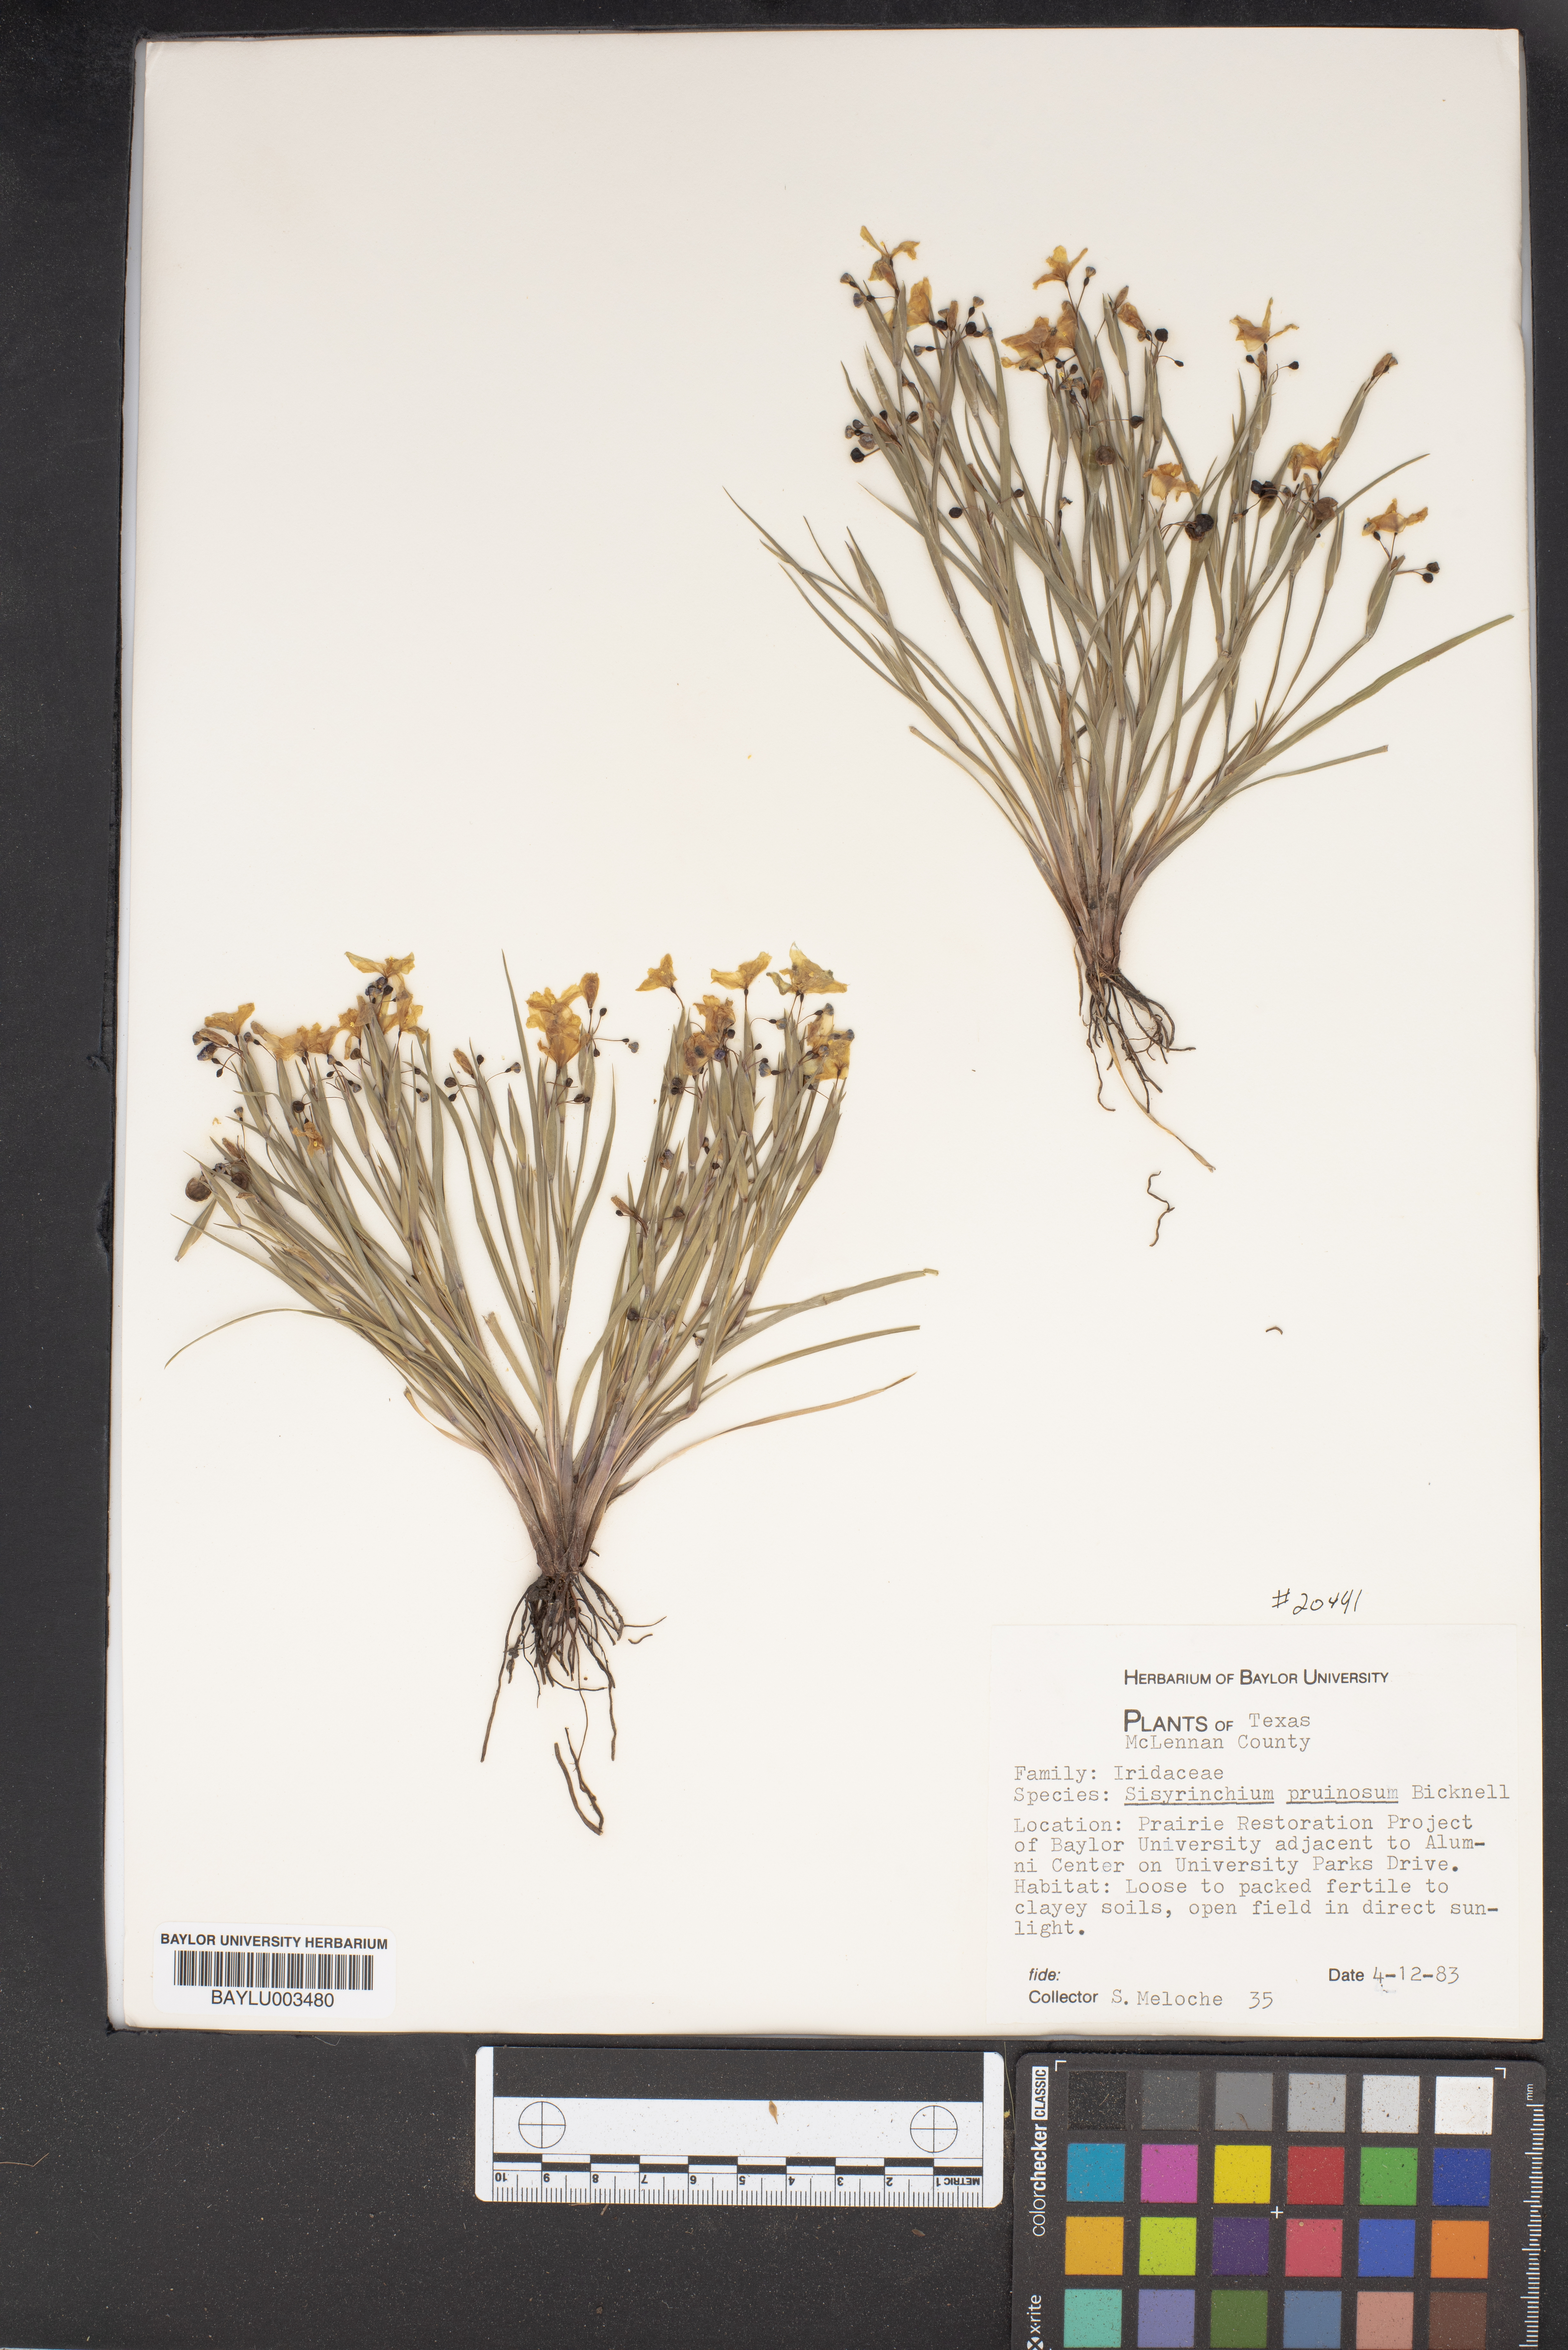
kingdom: Plantae
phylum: Tracheophyta
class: Liliopsida
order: Asparagales
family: Iridaceae
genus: Sisyrinchium
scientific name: Sisyrinchium pruinosum
